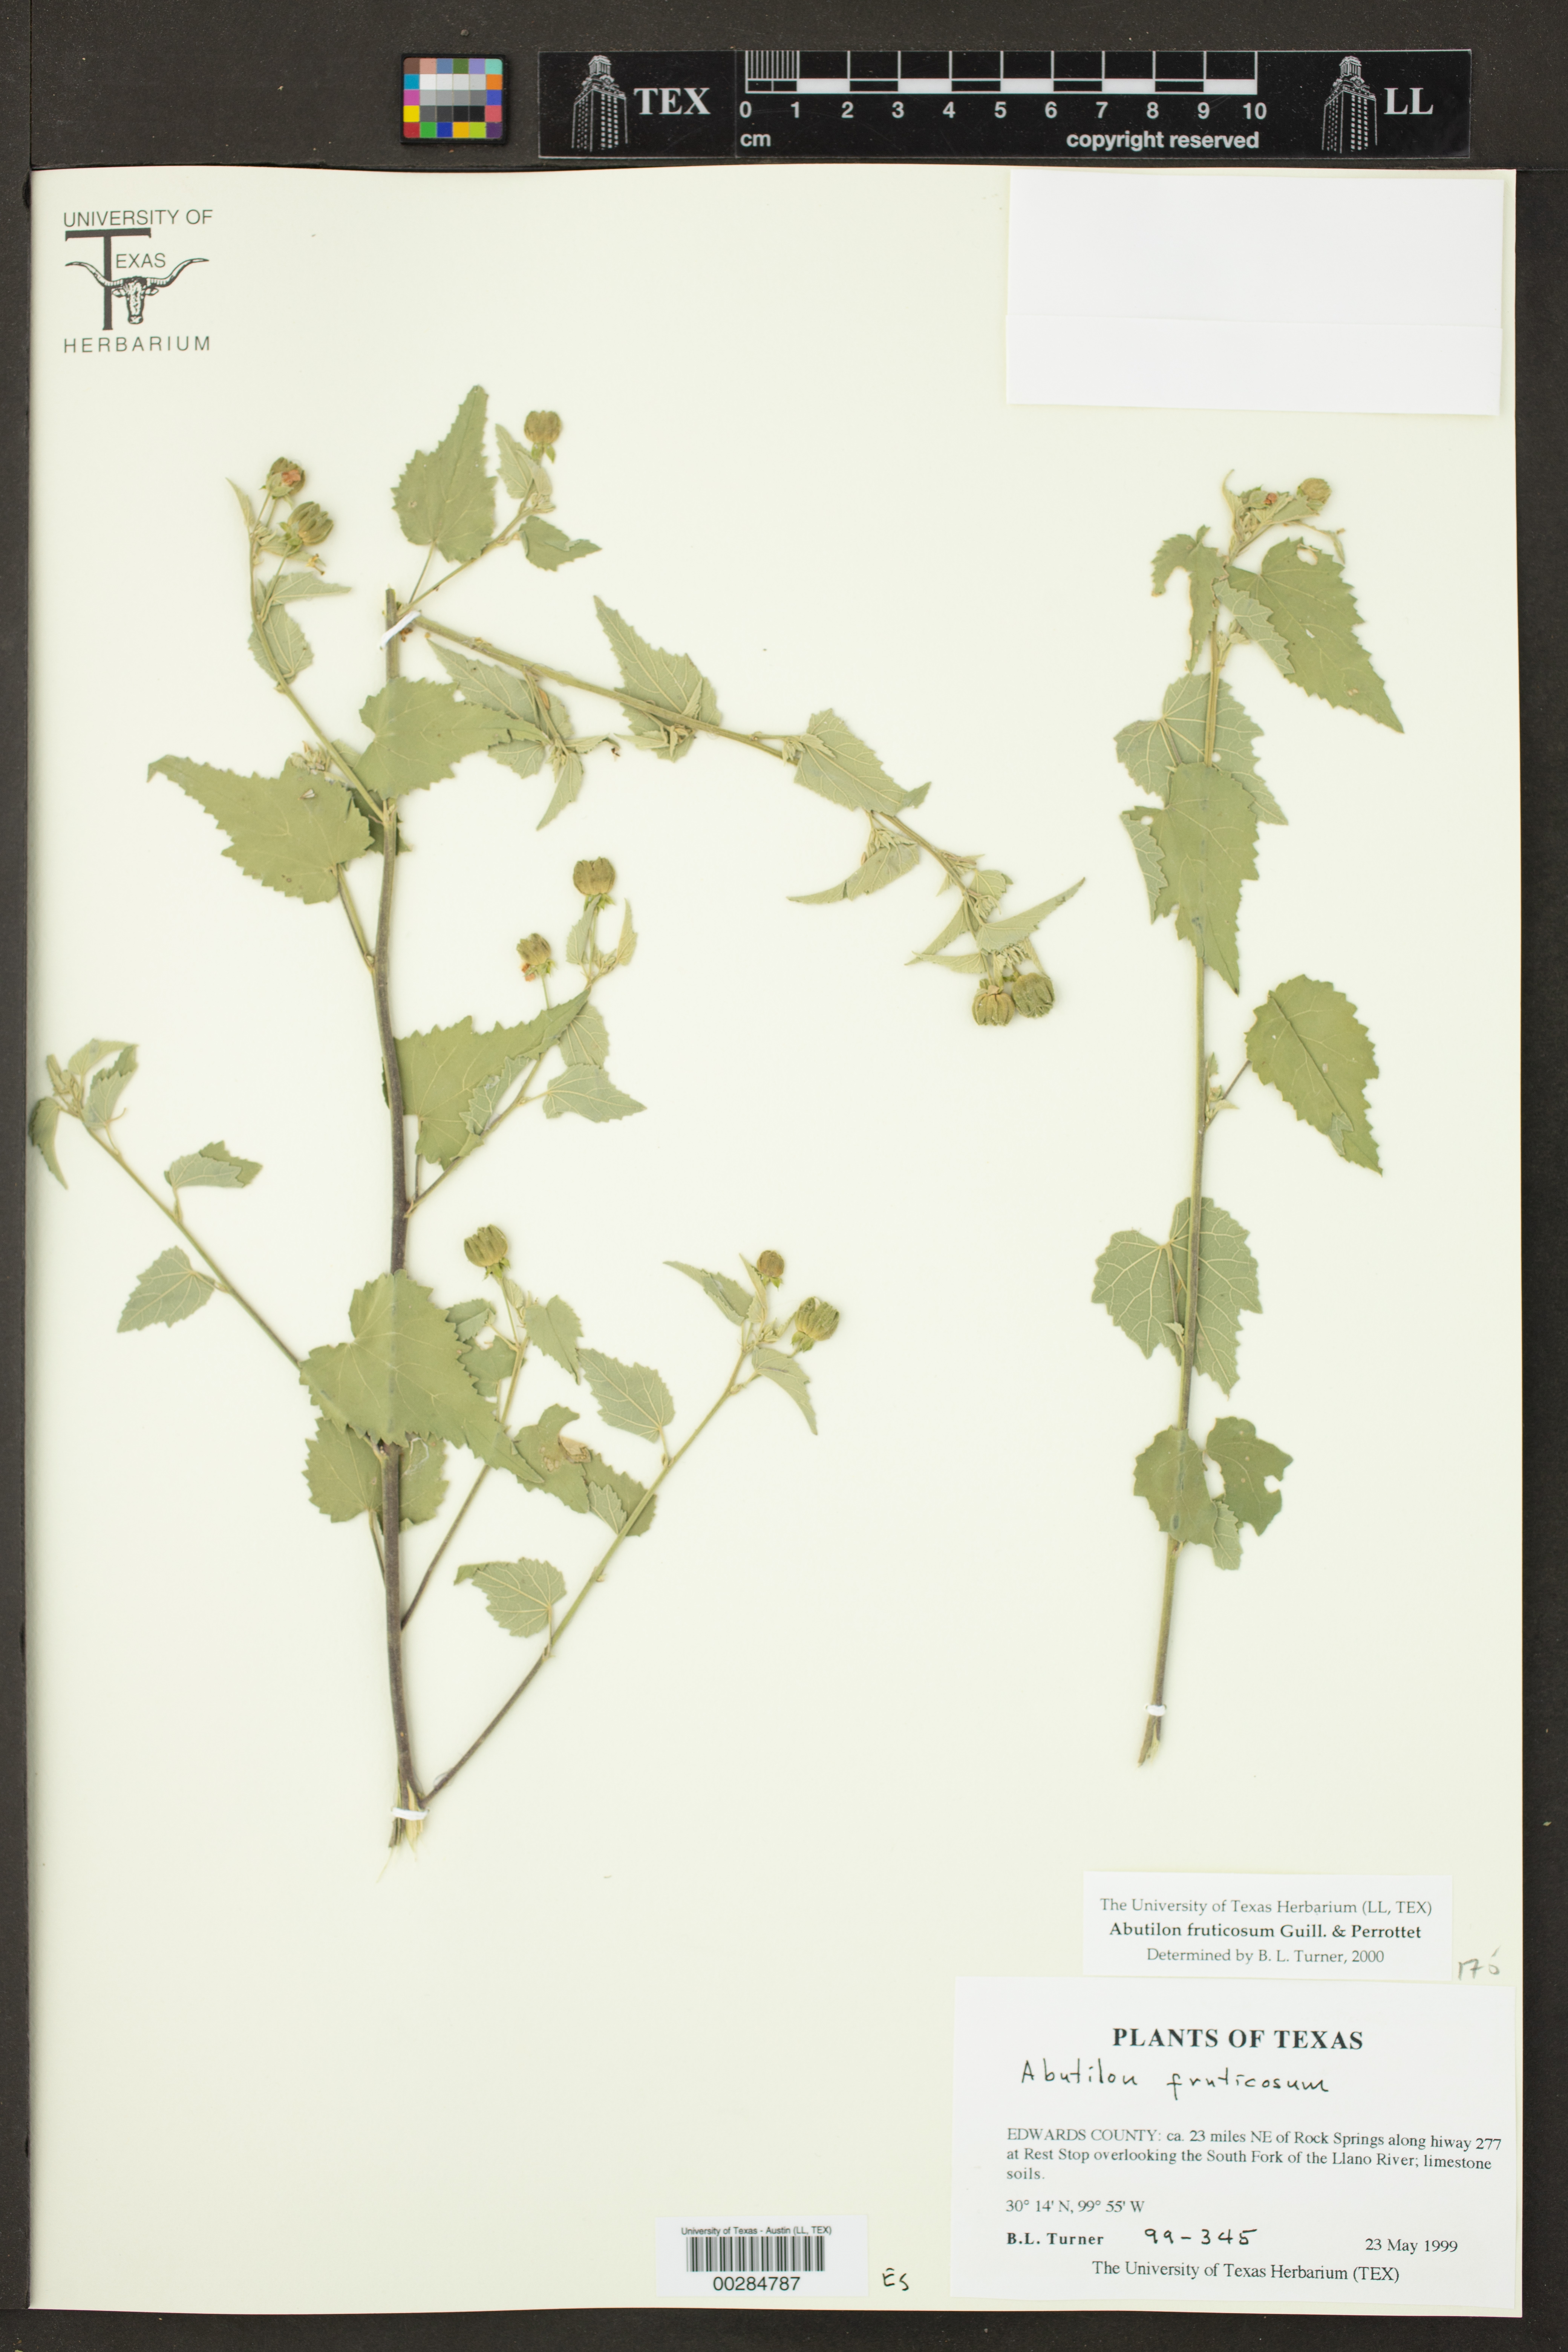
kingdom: Plantae
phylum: Tracheophyta
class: Magnoliopsida
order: Malvales
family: Malvaceae
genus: Abutilon
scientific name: Abutilon fruticosum
